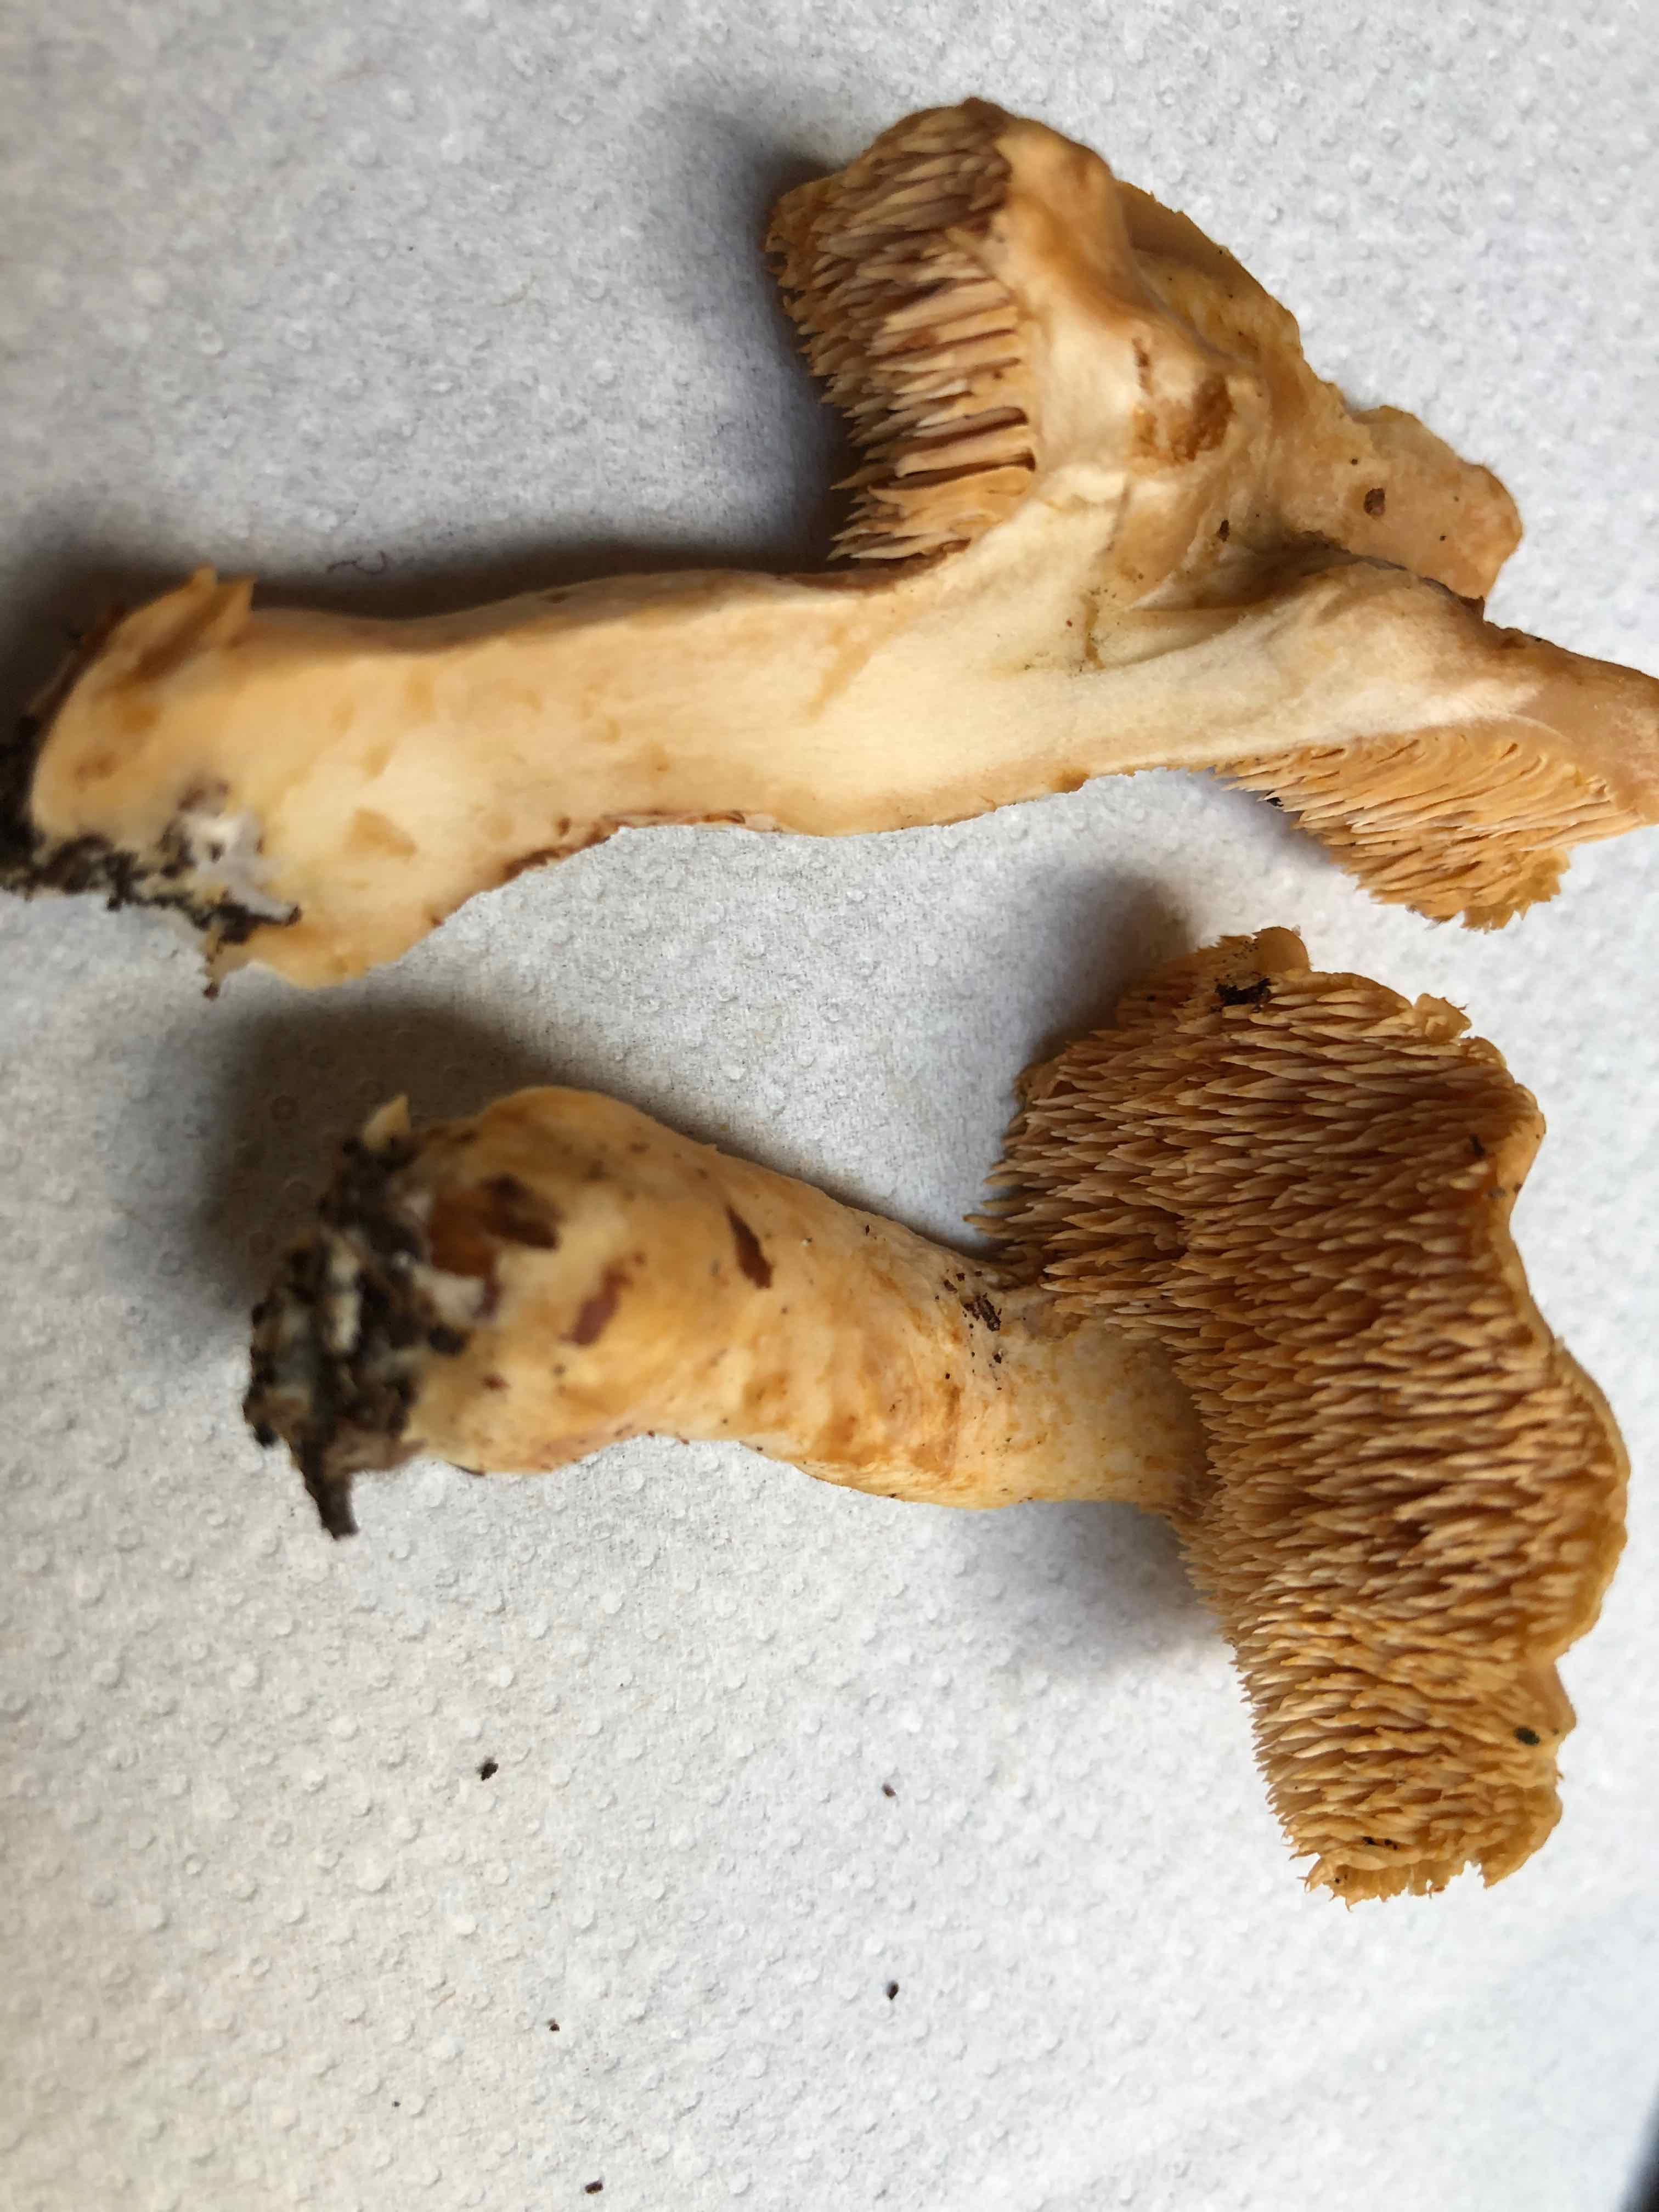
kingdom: Fungi
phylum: Basidiomycota
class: Agaricomycetes
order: Cantharellales
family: Hydnaceae
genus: Hydnum
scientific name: Hydnum umbilicatum
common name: navle-pigsvamp
